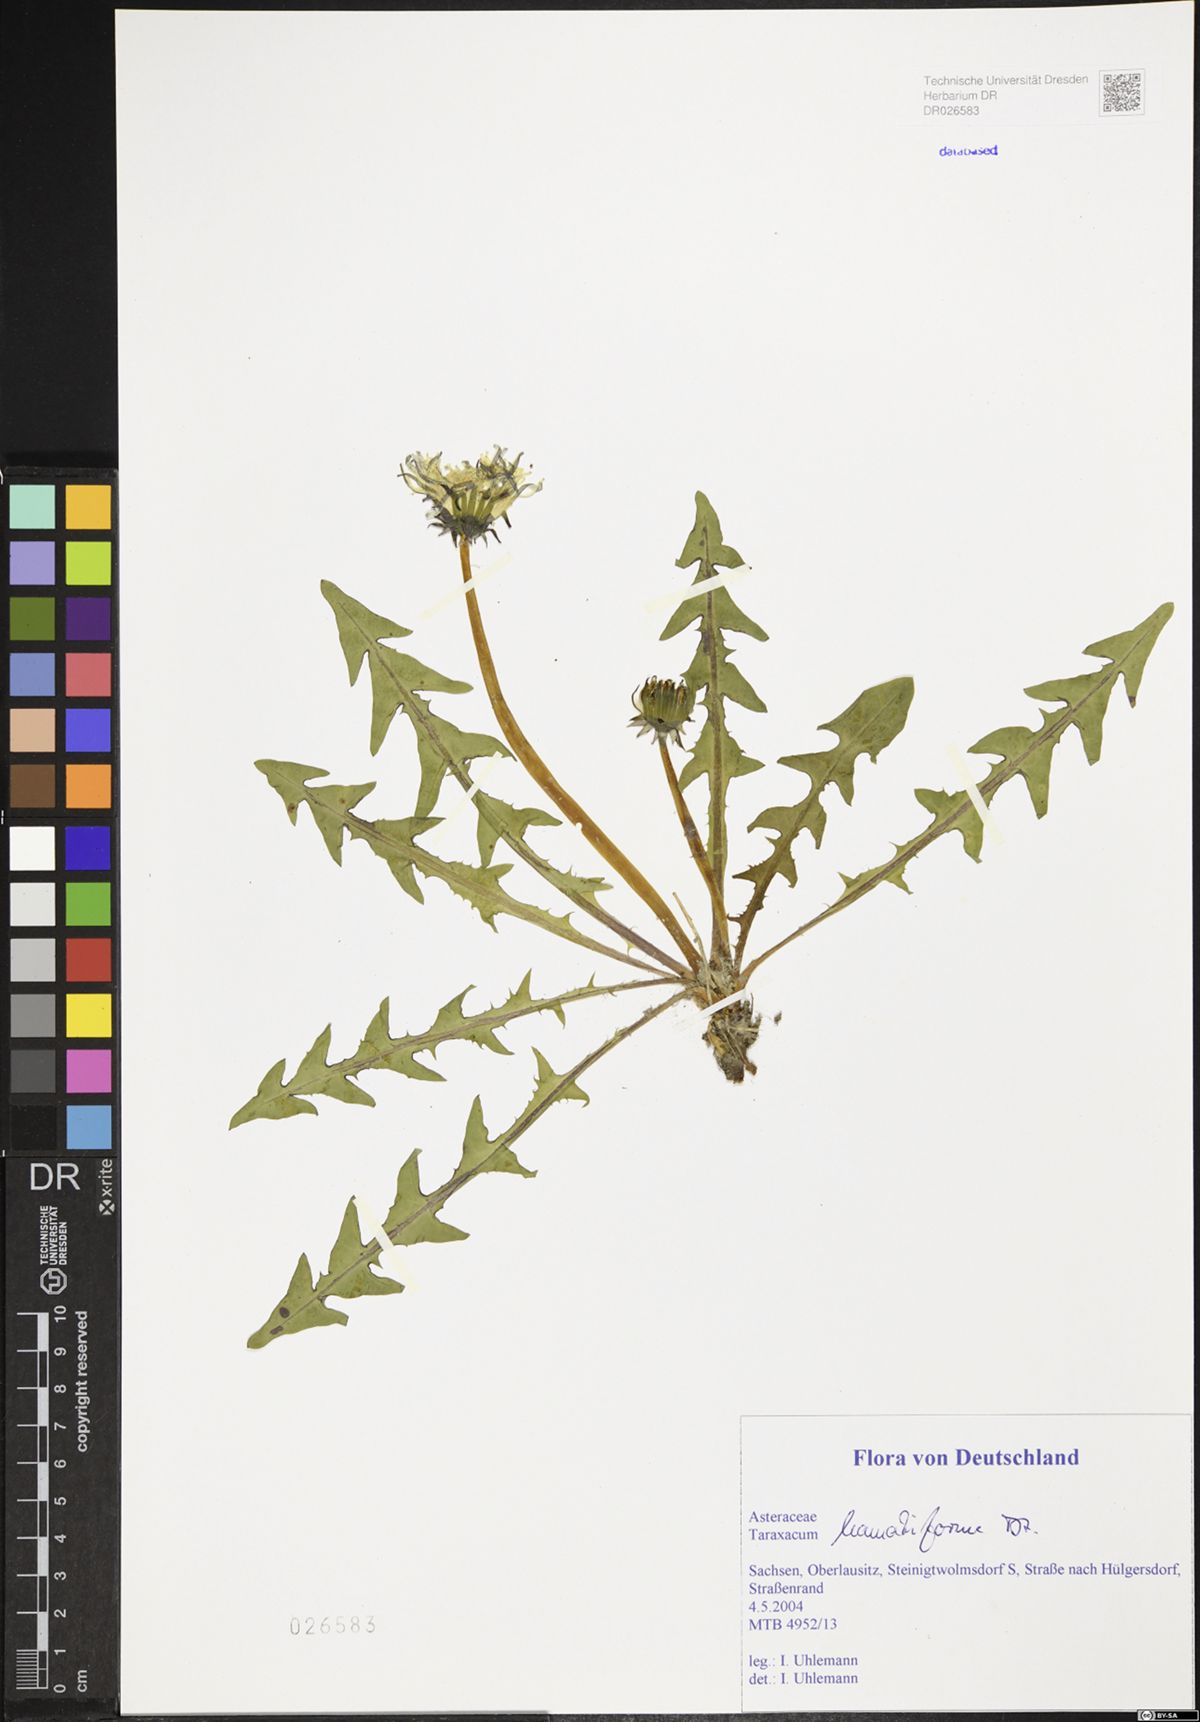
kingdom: Plantae
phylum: Tracheophyta
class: Magnoliopsida
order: Asterales
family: Asteraceae
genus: Taraxacum
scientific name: Taraxacum hamatiforme
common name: Asymmetrical hook-lobed dandelion
